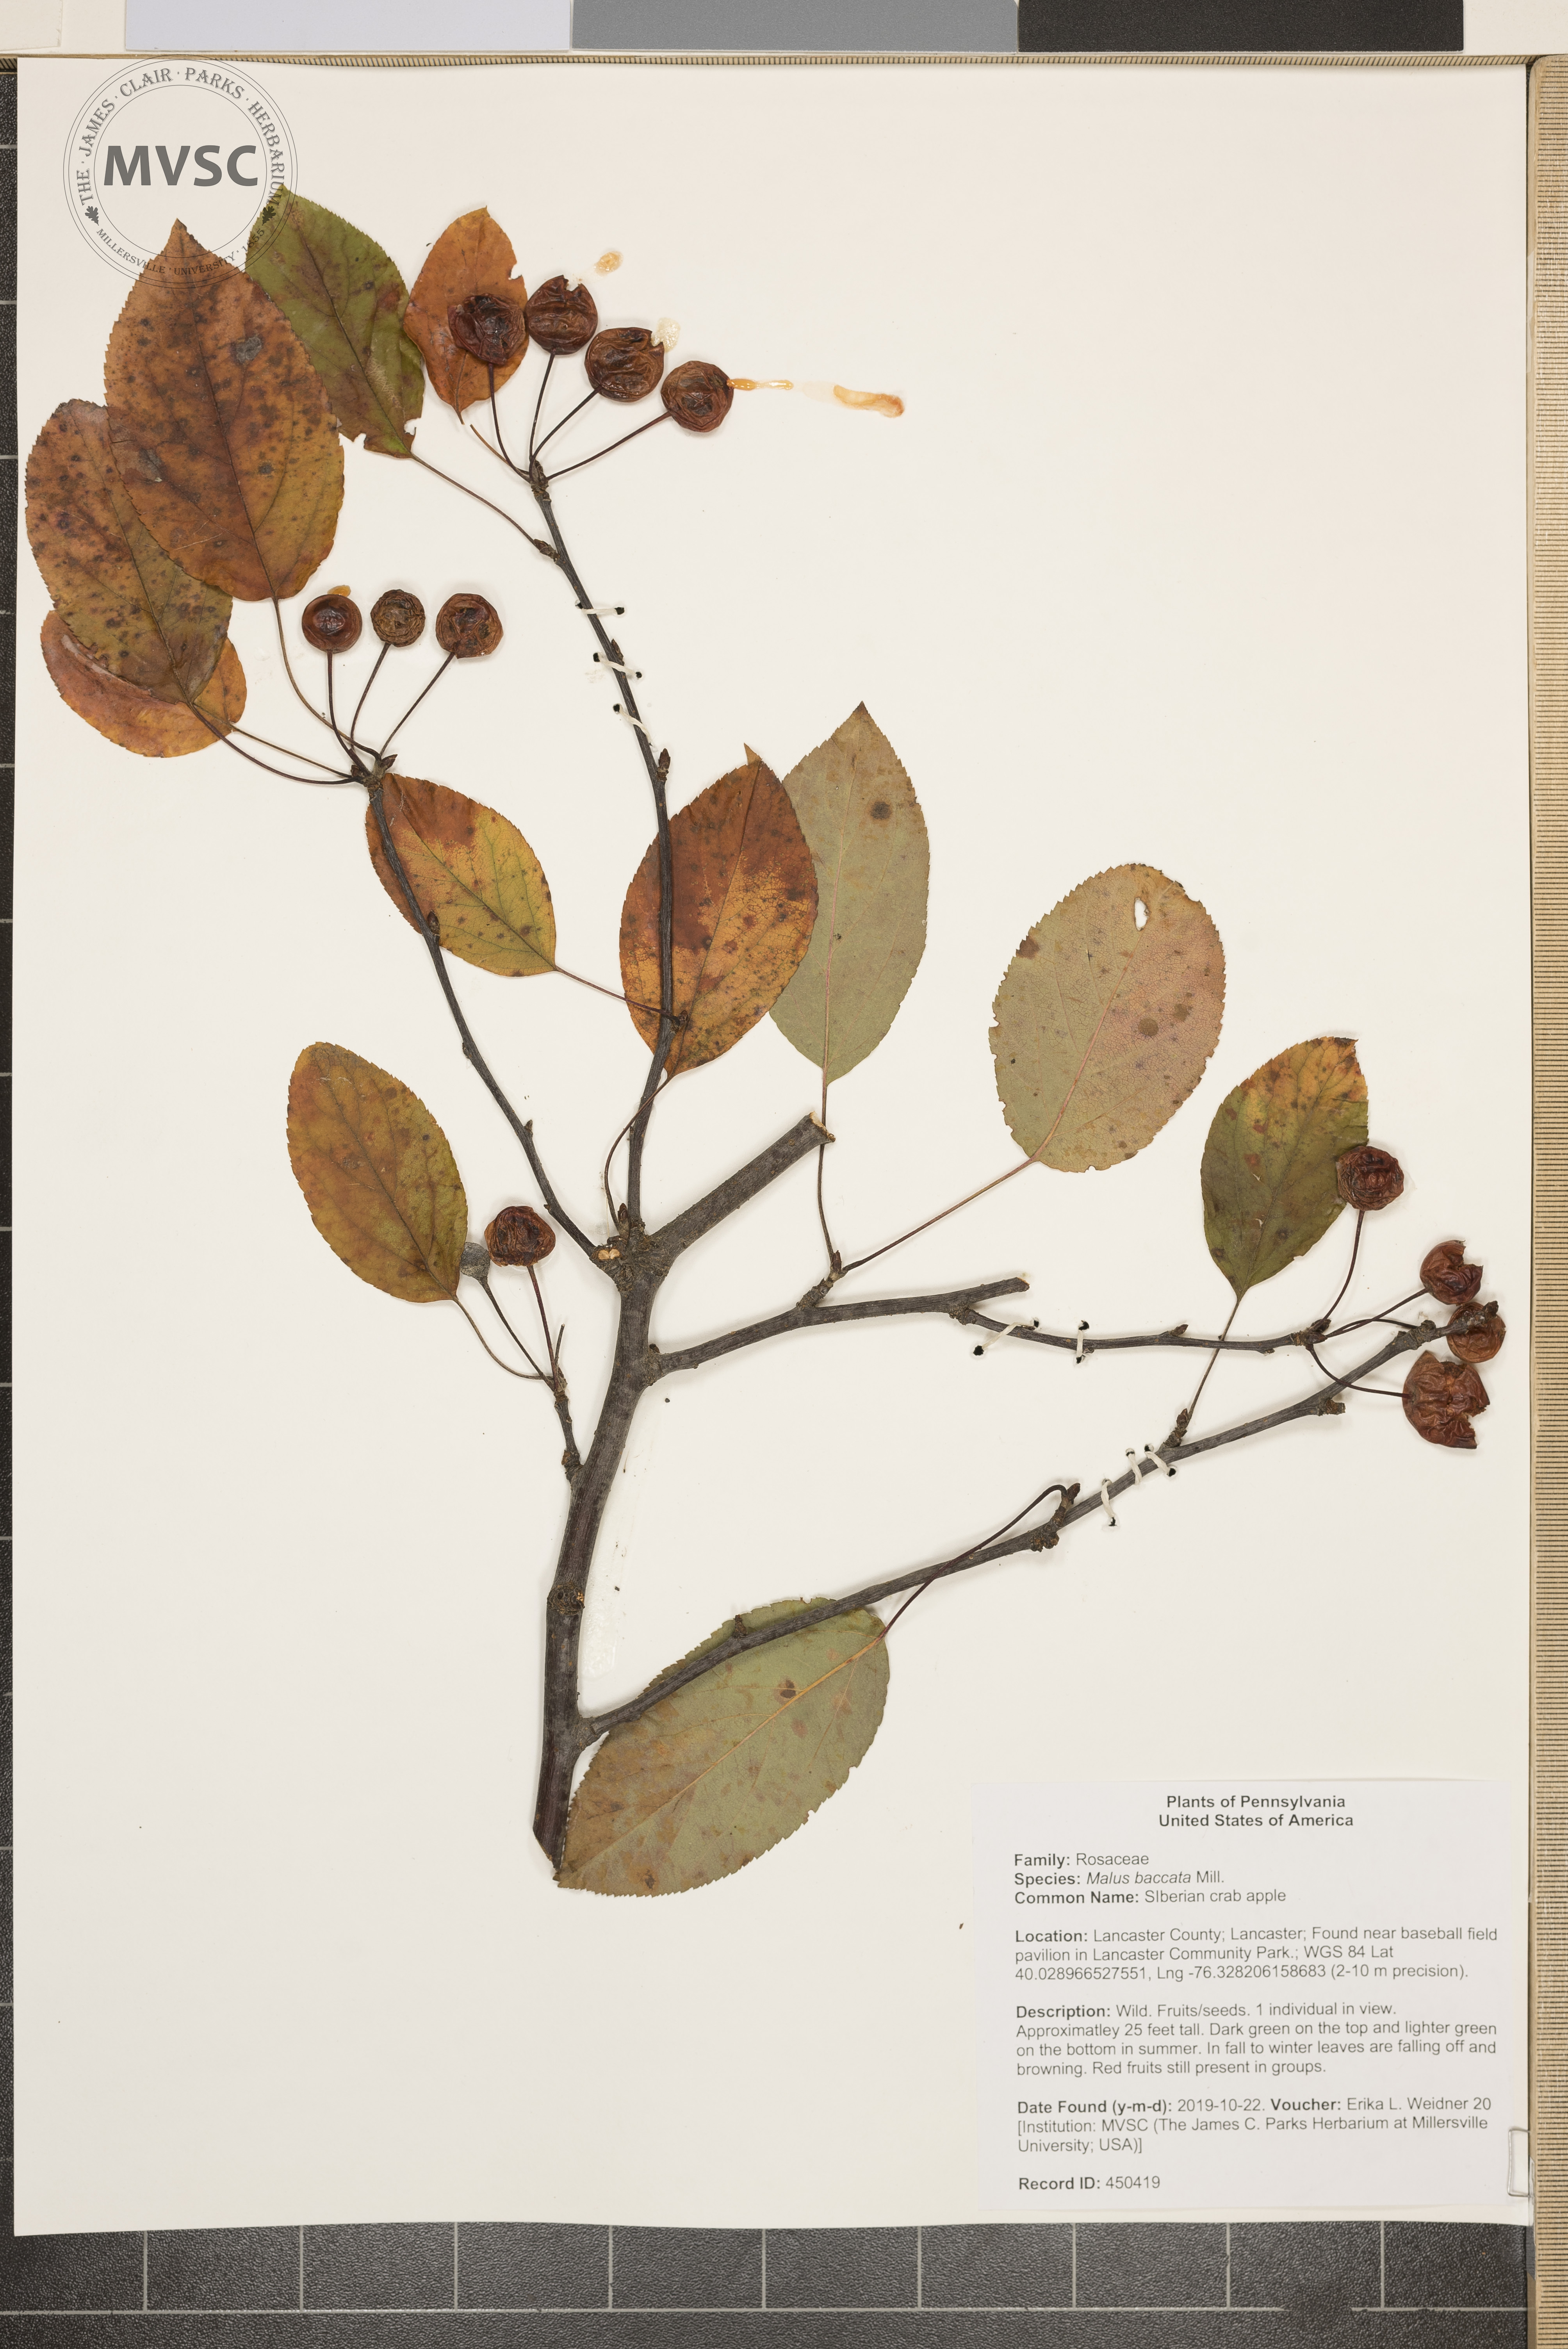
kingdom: Plantae
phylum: Tracheophyta
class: Magnoliopsida
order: Rosales
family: Rosaceae
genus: Malus
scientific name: Malus baccata
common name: SIberian crab apple
